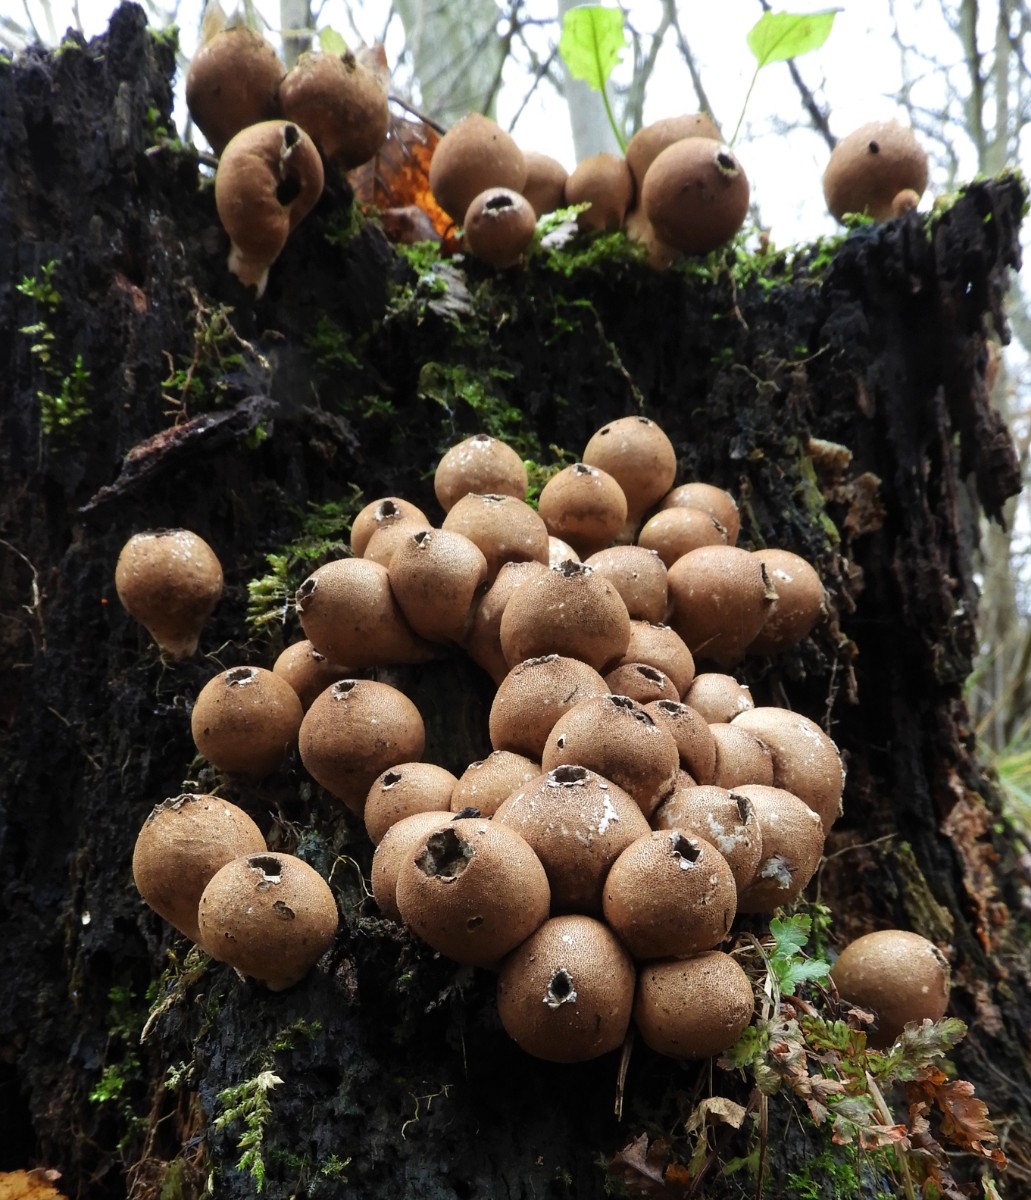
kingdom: Fungi
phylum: Basidiomycota
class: Agaricomycetes
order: Agaricales
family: Lycoperdaceae
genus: Apioperdon
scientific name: Apioperdon pyriforme
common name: pære-støvbold
